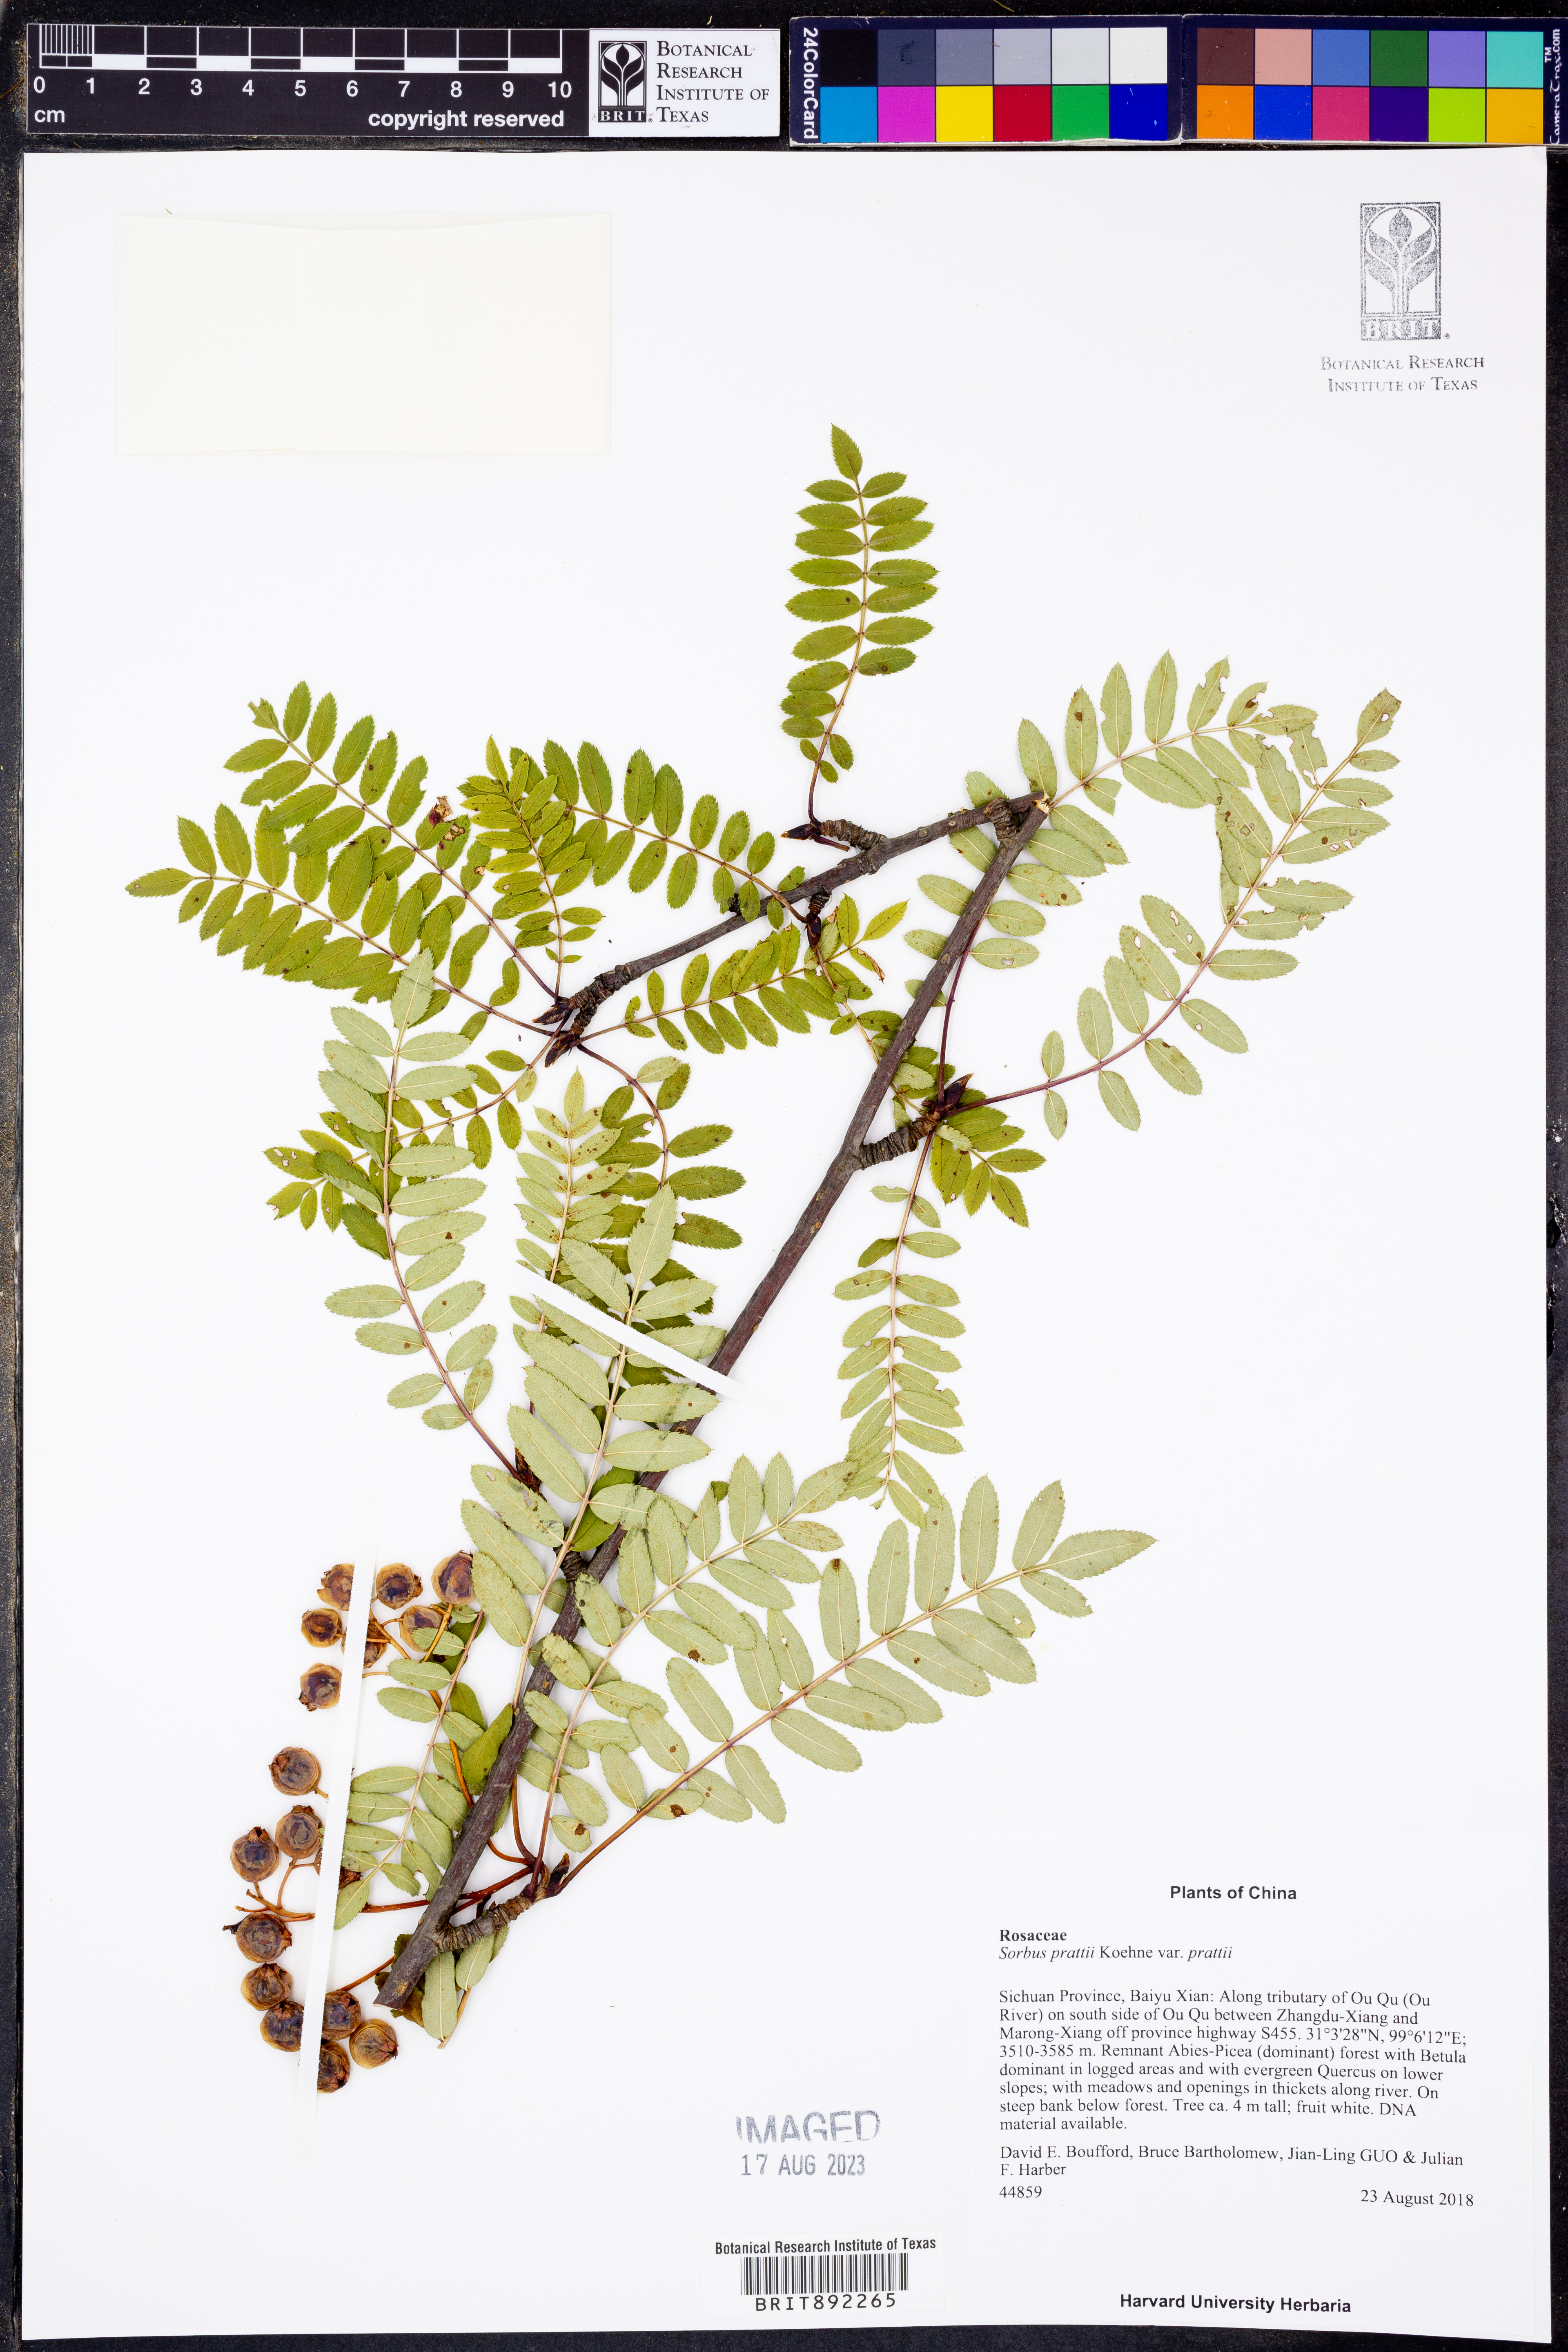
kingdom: Plantae
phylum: Tracheophyta
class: Magnoliopsida
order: Rosales
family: Rosaceae
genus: Sorbus
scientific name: Sorbus prattii
